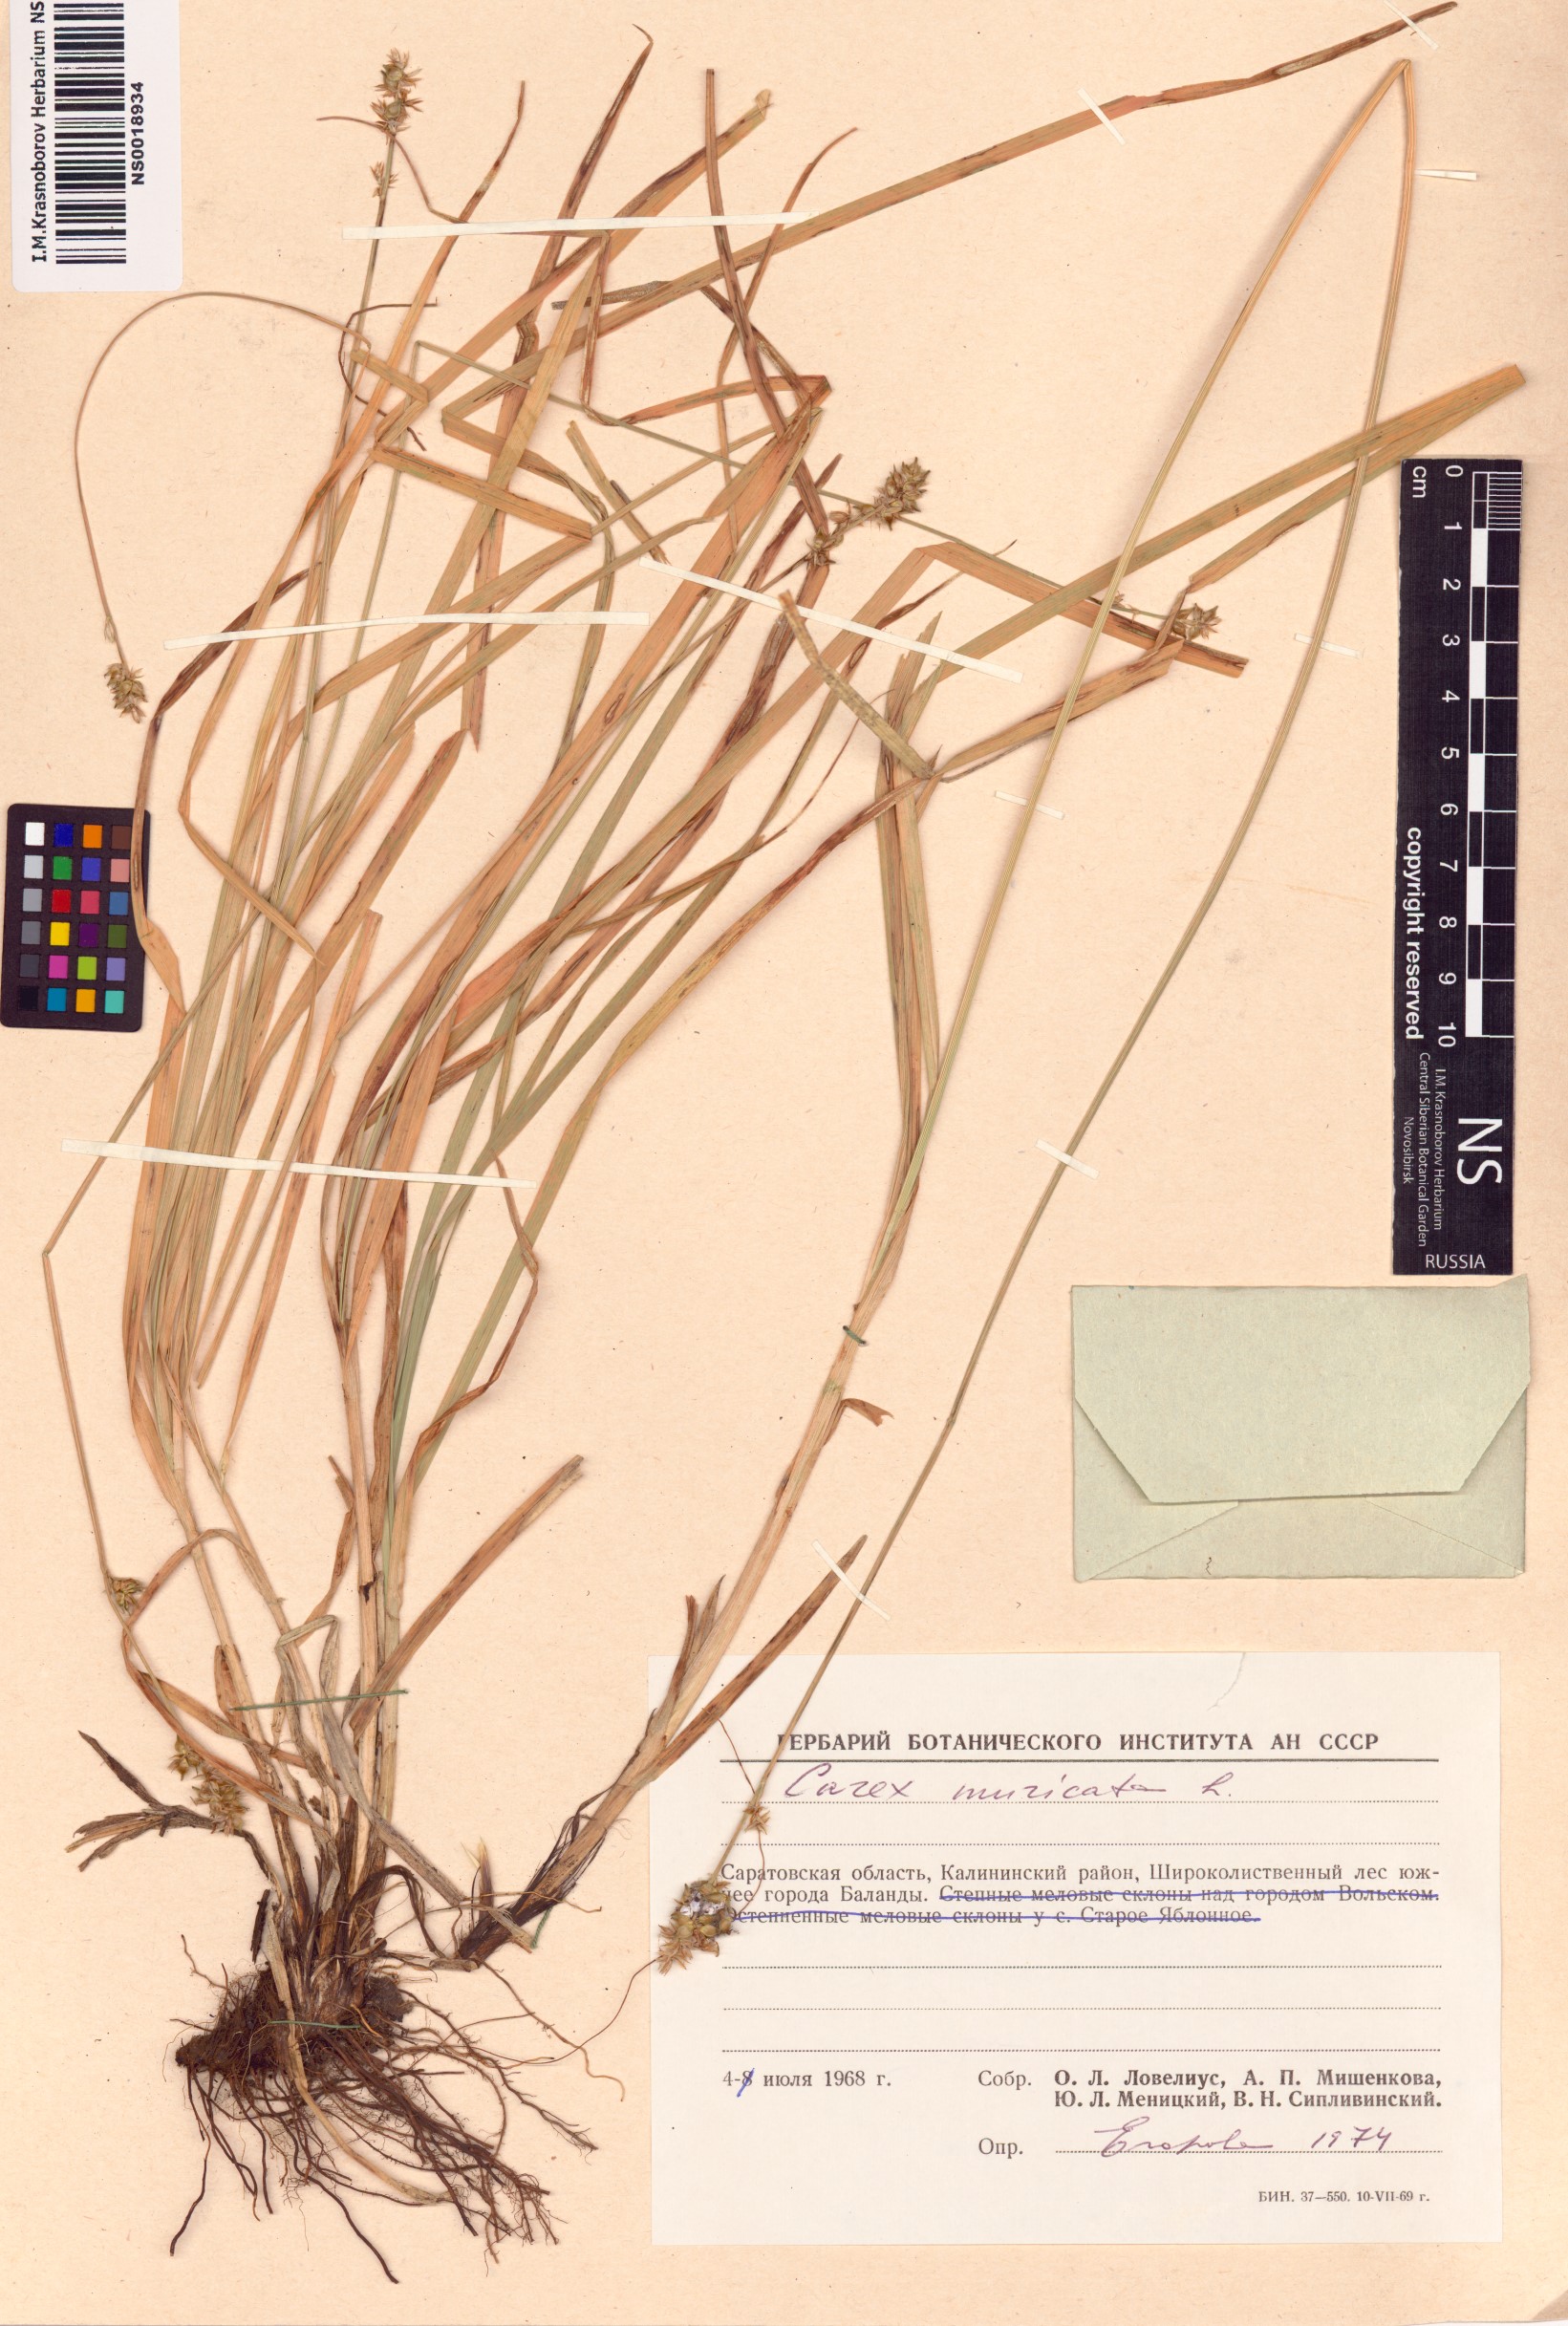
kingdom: Plantae
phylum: Tracheophyta
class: Liliopsida
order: Poales
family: Cyperaceae
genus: Carex
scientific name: Carex muricata
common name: Rough sedge
